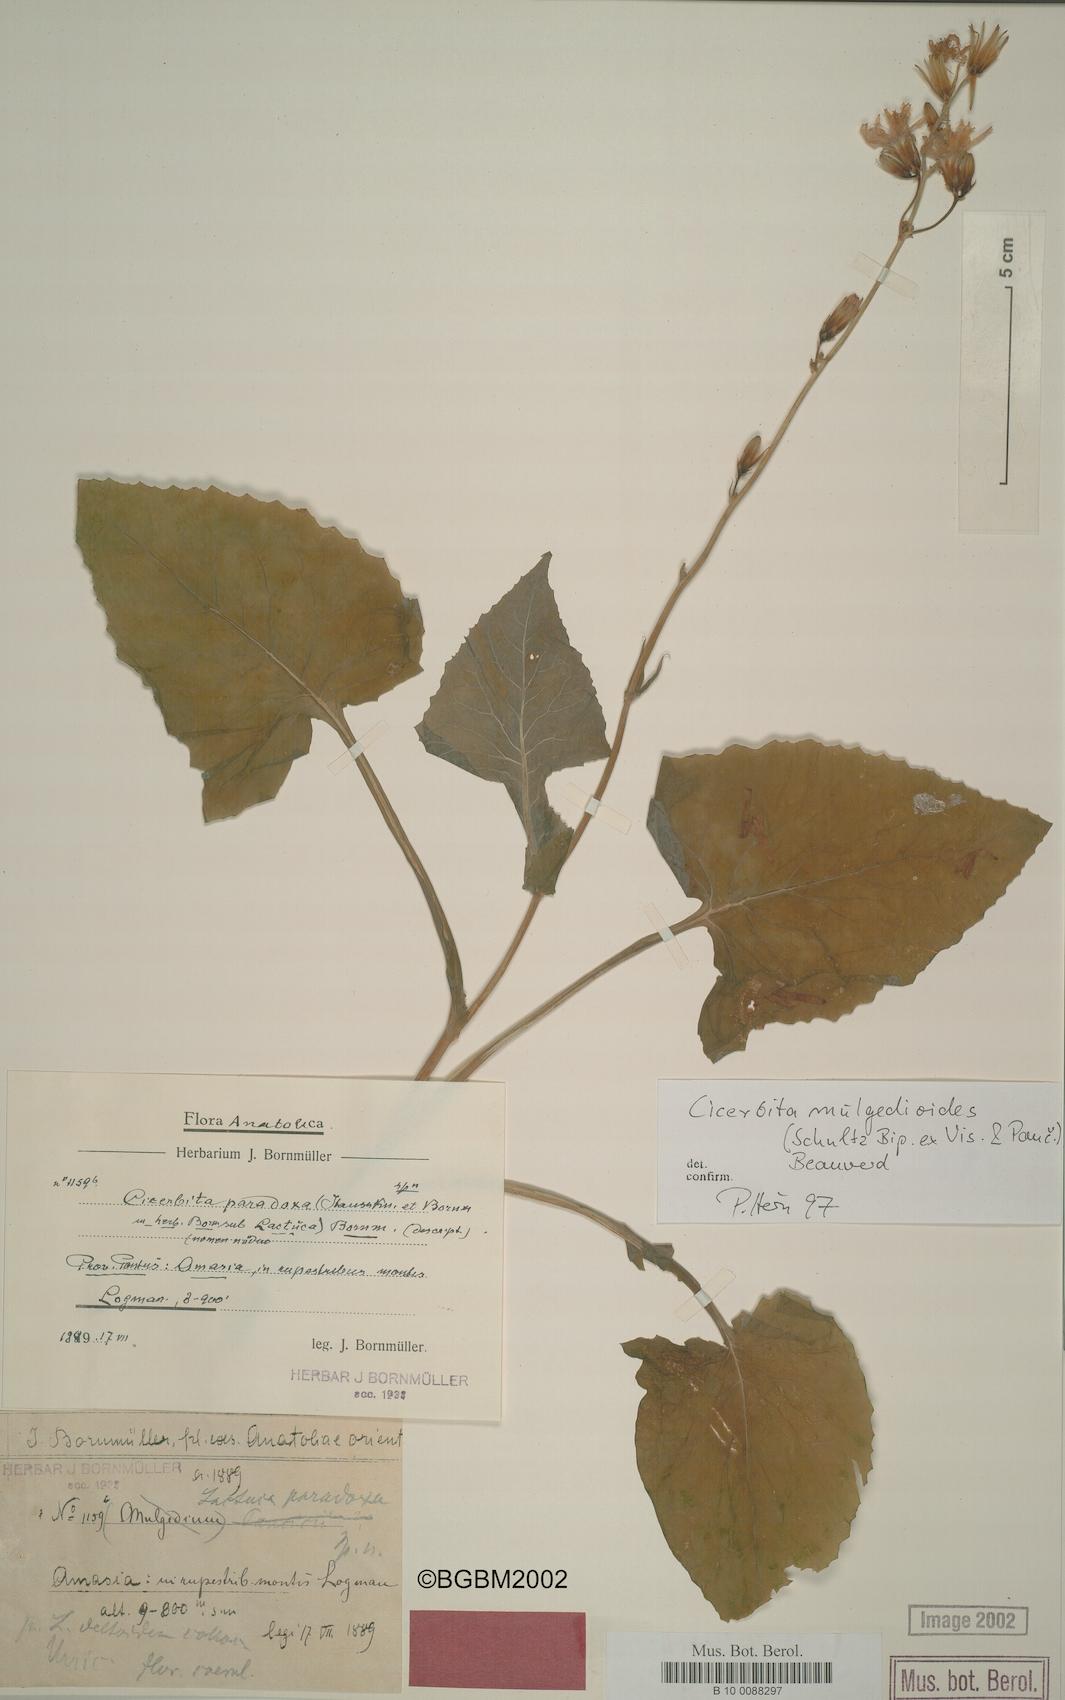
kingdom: Plantae
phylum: Tracheophyta
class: Magnoliopsida
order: Asterales
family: Asteraceae
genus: Lactuca
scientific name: Lactuca mulgedioides
